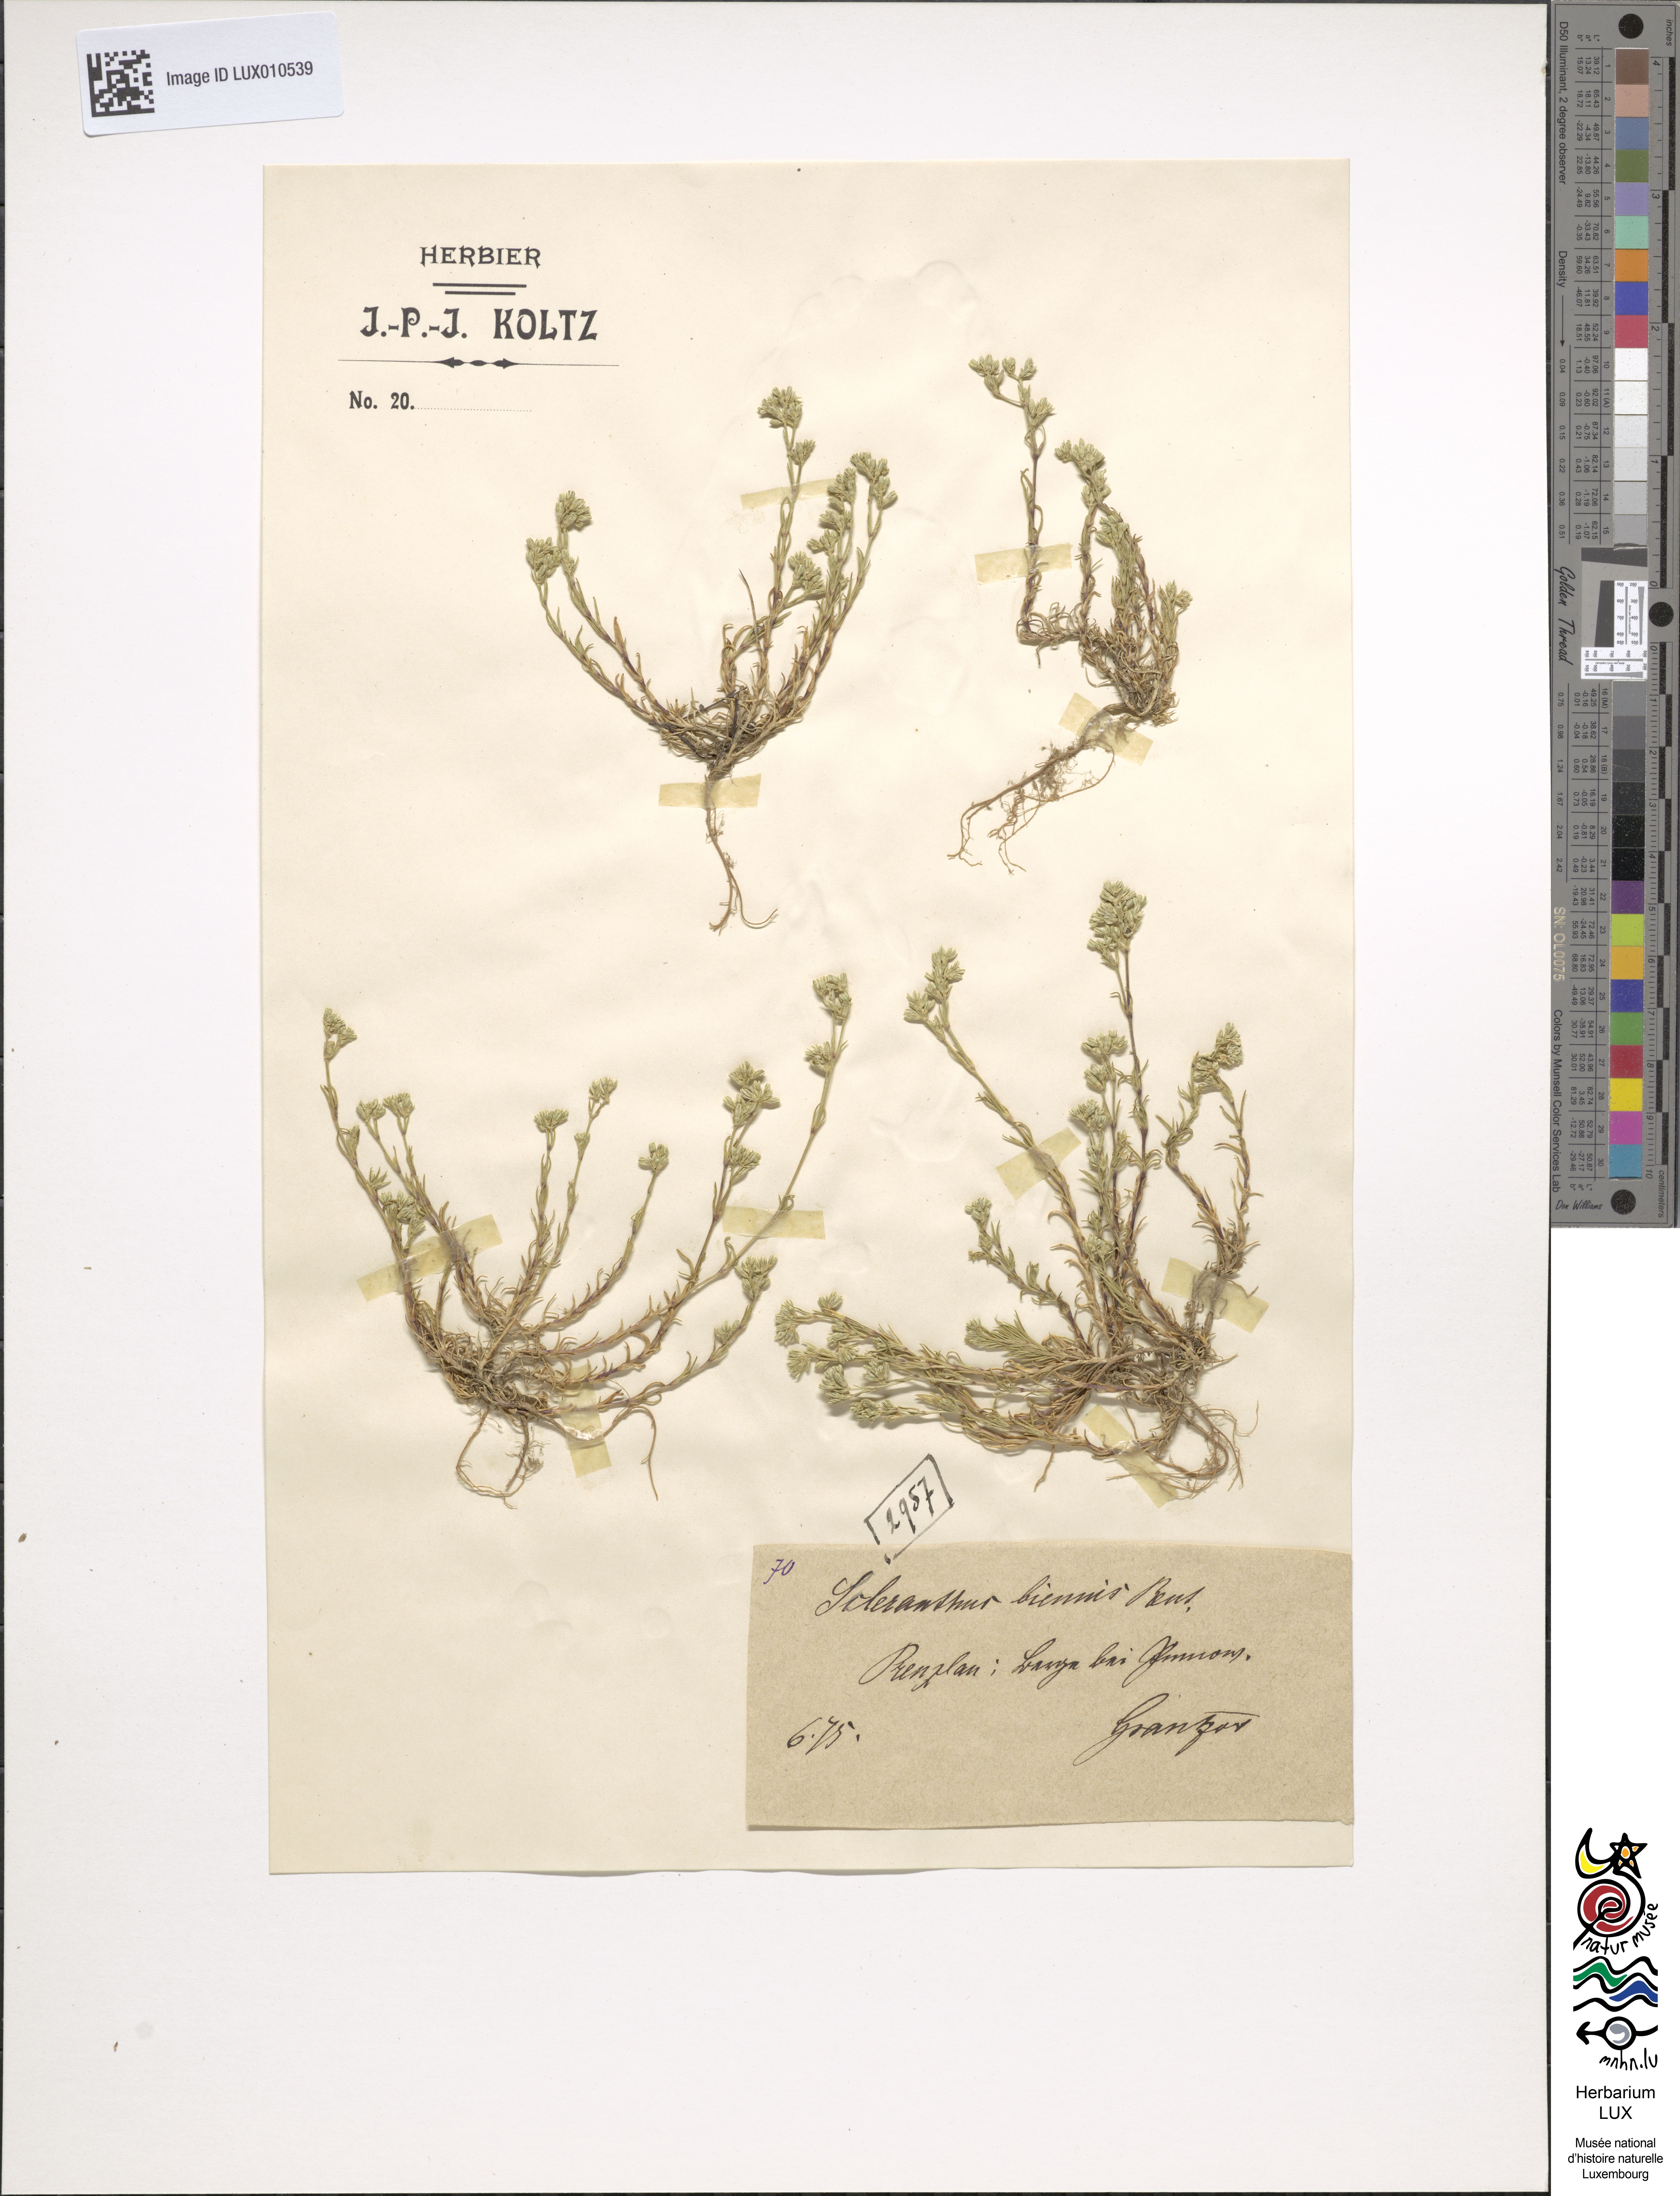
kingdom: Plantae
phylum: Tracheophyta
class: Magnoliopsida
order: Caryophyllales
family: Caryophyllaceae
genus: Scleranthus
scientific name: Scleranthus annuus
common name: Annual knawel
